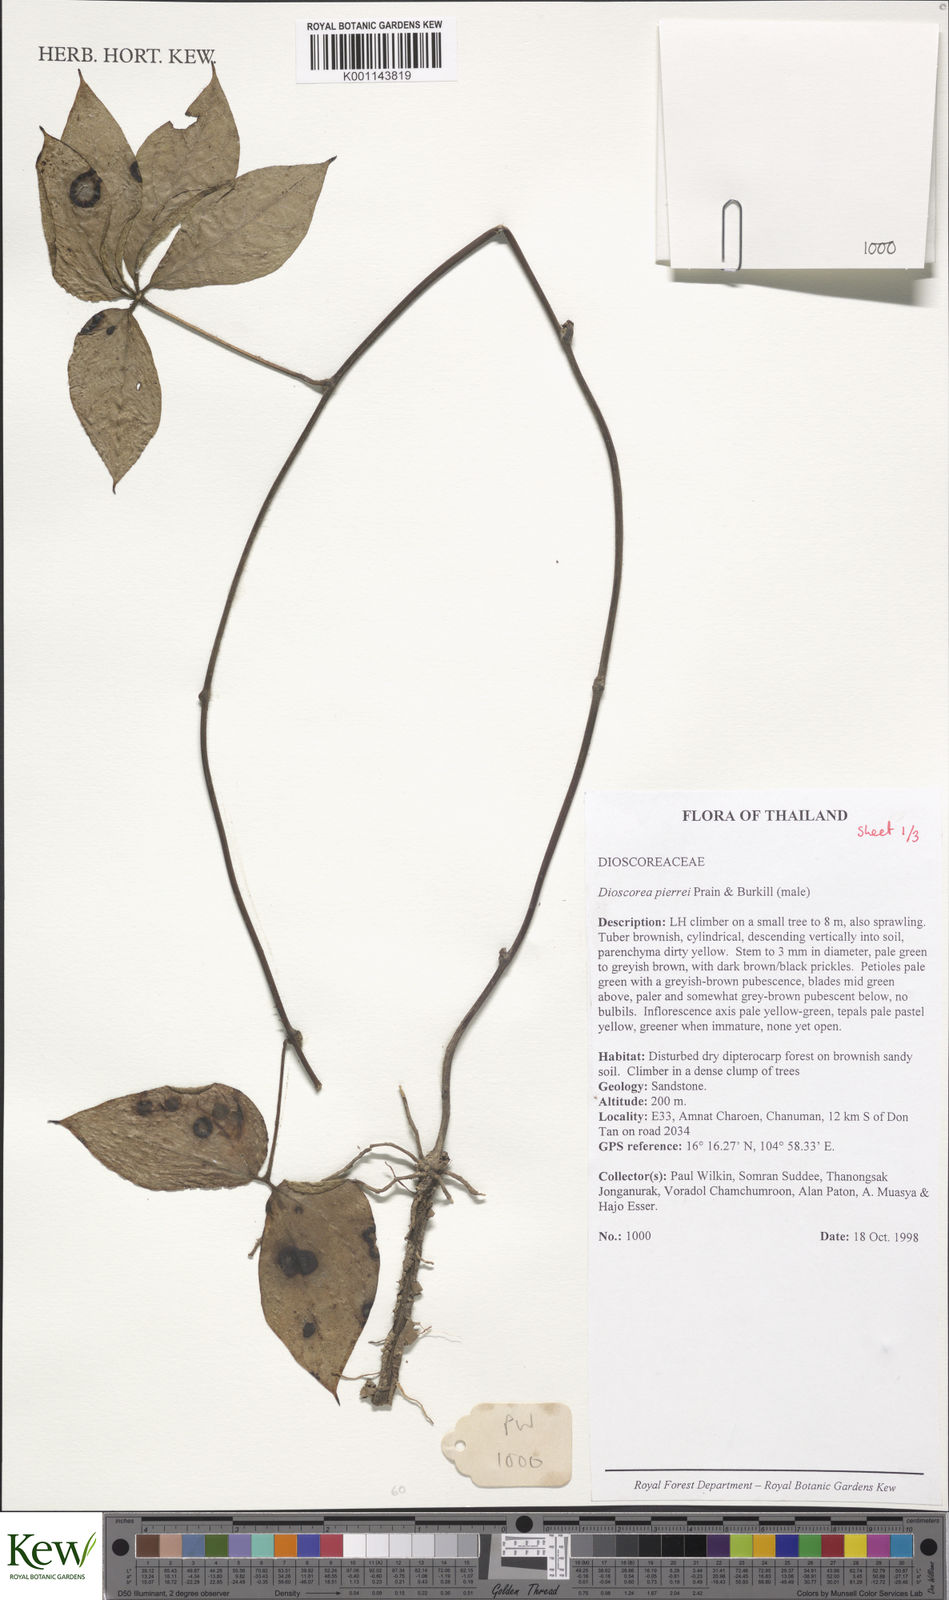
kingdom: Plantae
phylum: Tracheophyta
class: Liliopsida
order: Dioscoreales
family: Dioscoreaceae
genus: Dioscorea
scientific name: Dioscorea pierrei
